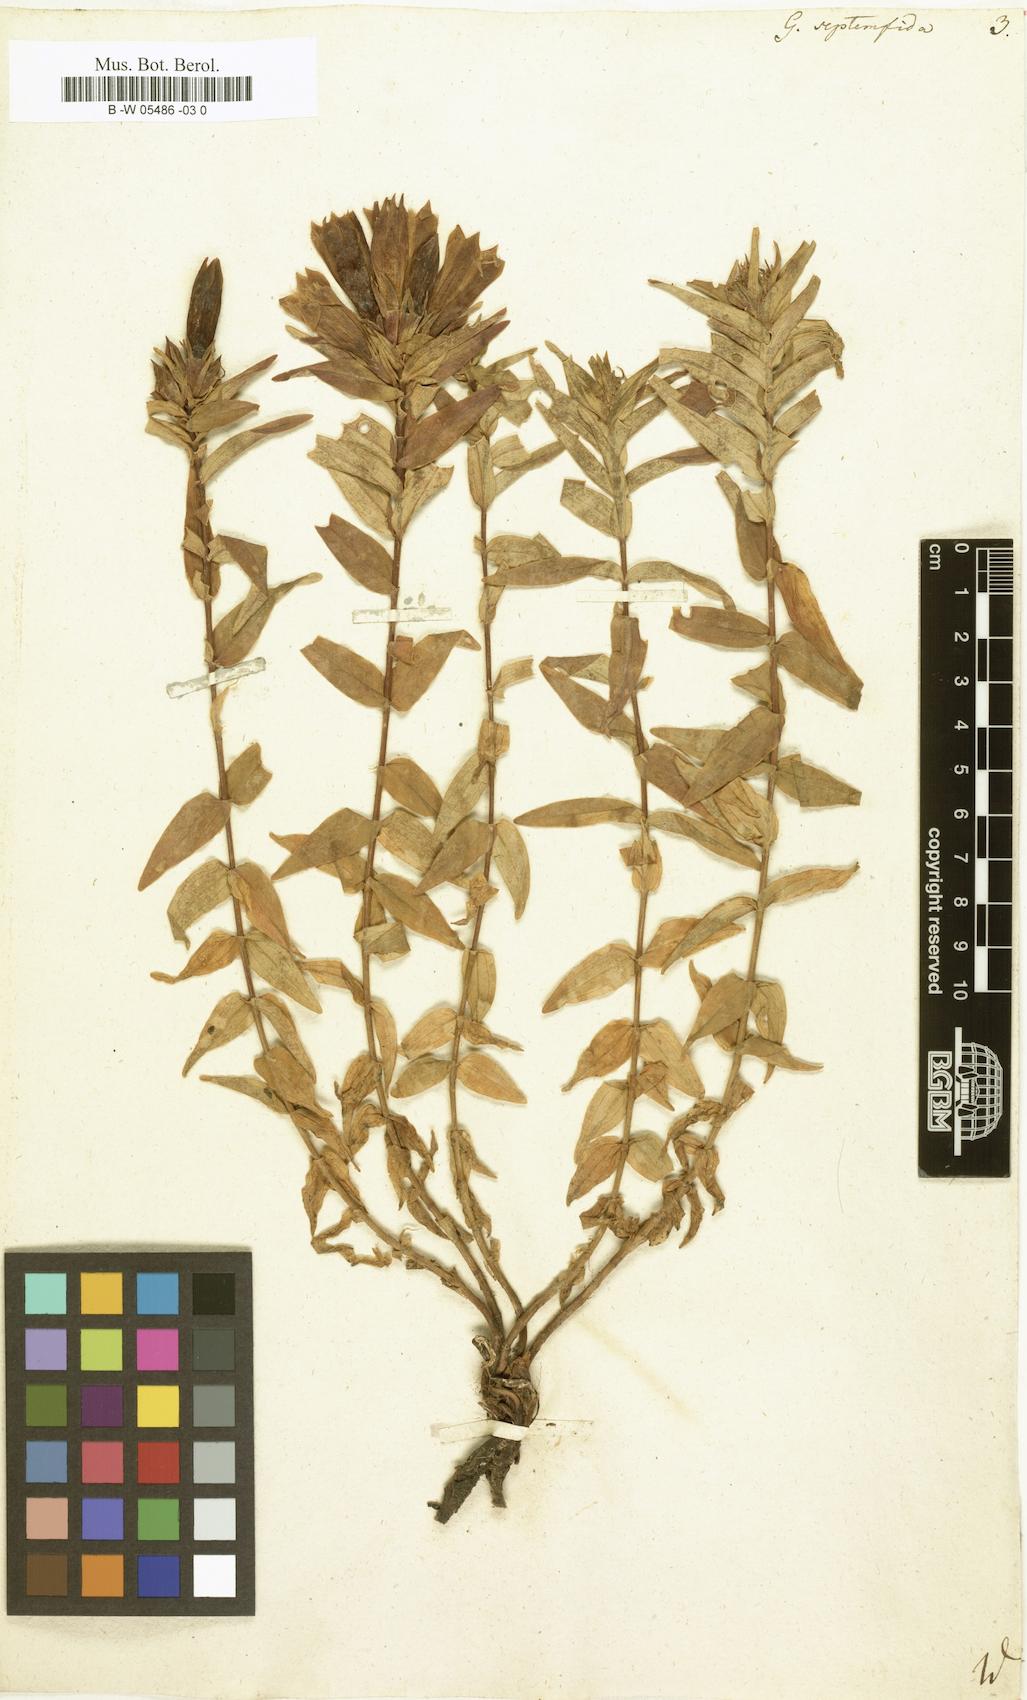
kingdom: Plantae
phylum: Tracheophyta
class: Magnoliopsida
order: Gentianales
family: Gentianaceae
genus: Gentiana
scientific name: Gentiana septemfida
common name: Crested gentian
